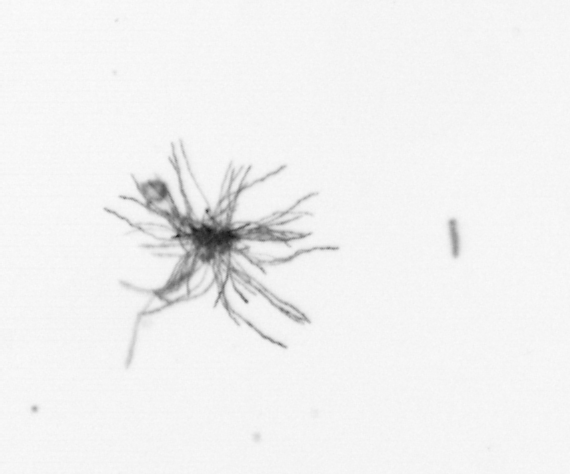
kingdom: Bacteria
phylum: Cyanobacteria
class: Cyanobacteriia
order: Cyanobacteriales
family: Microcoleaceae
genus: Trichodesmium
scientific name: Trichodesmium
